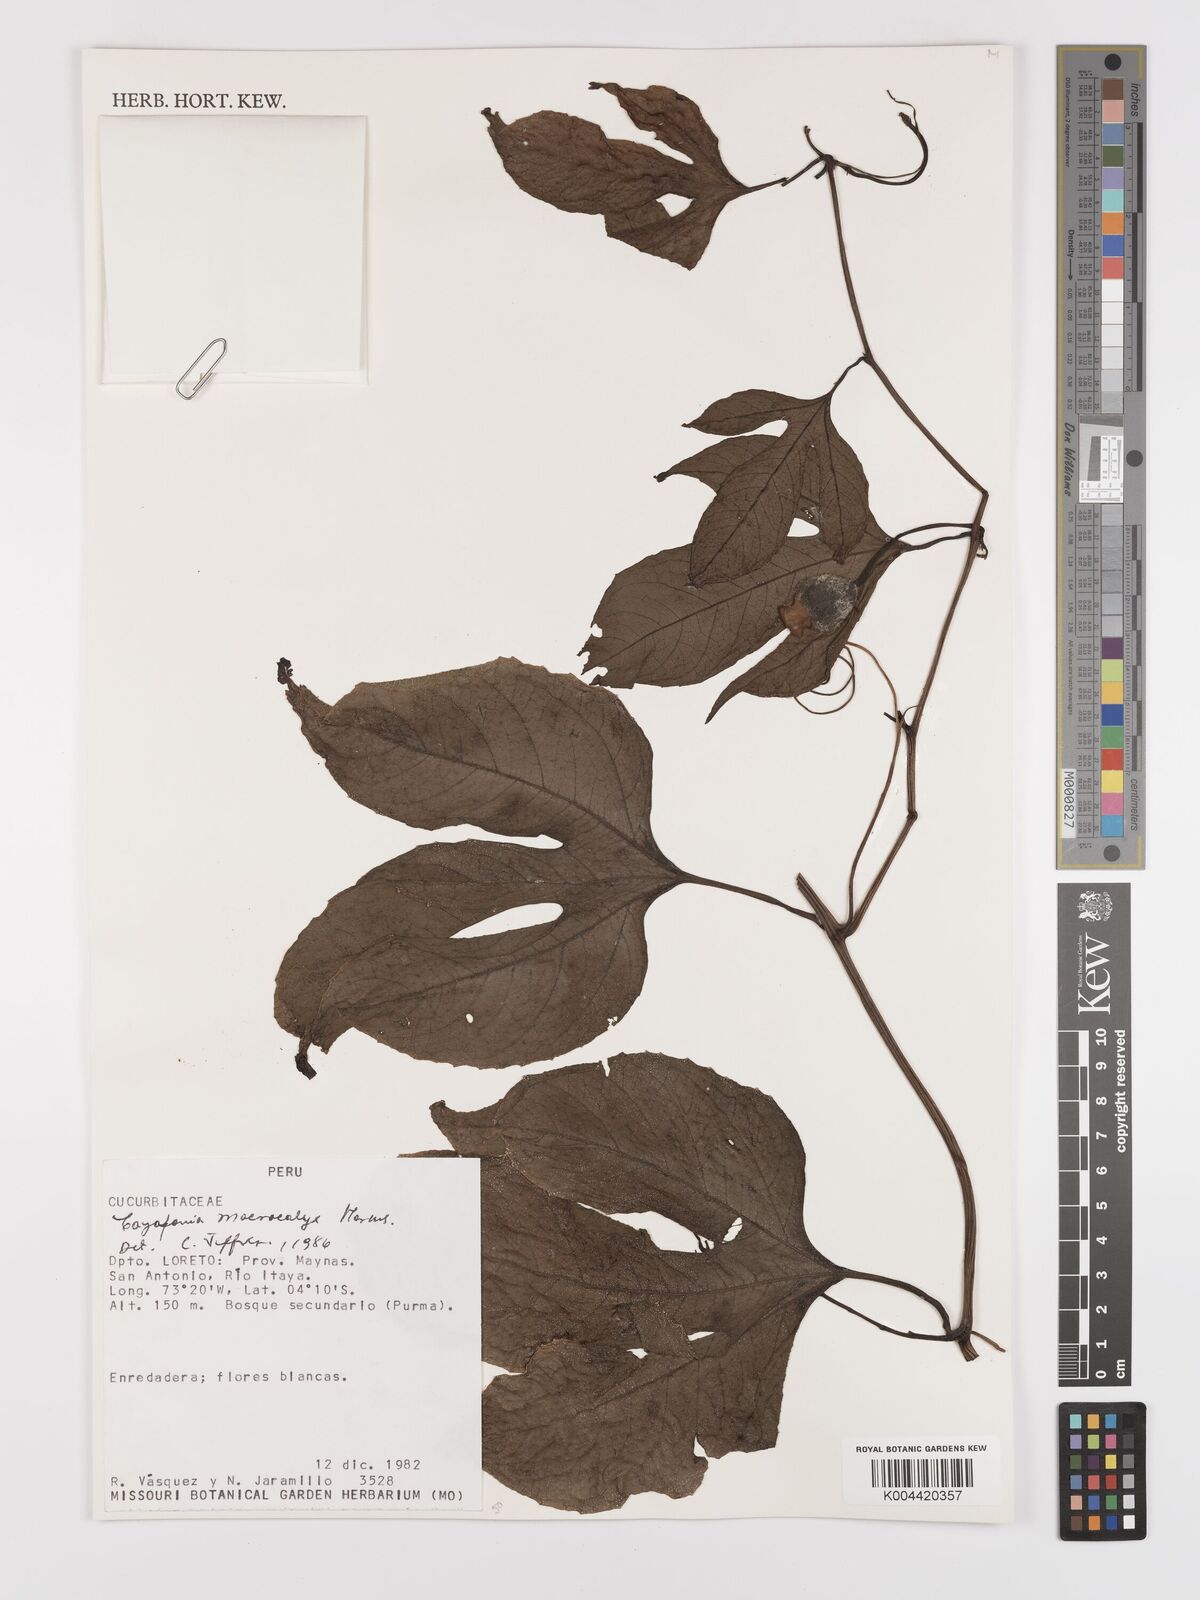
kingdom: Plantae
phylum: Tracheophyta
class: Magnoliopsida
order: Cucurbitales
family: Cucurbitaceae
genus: Cayaponia
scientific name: Cayaponia macrocalyx
